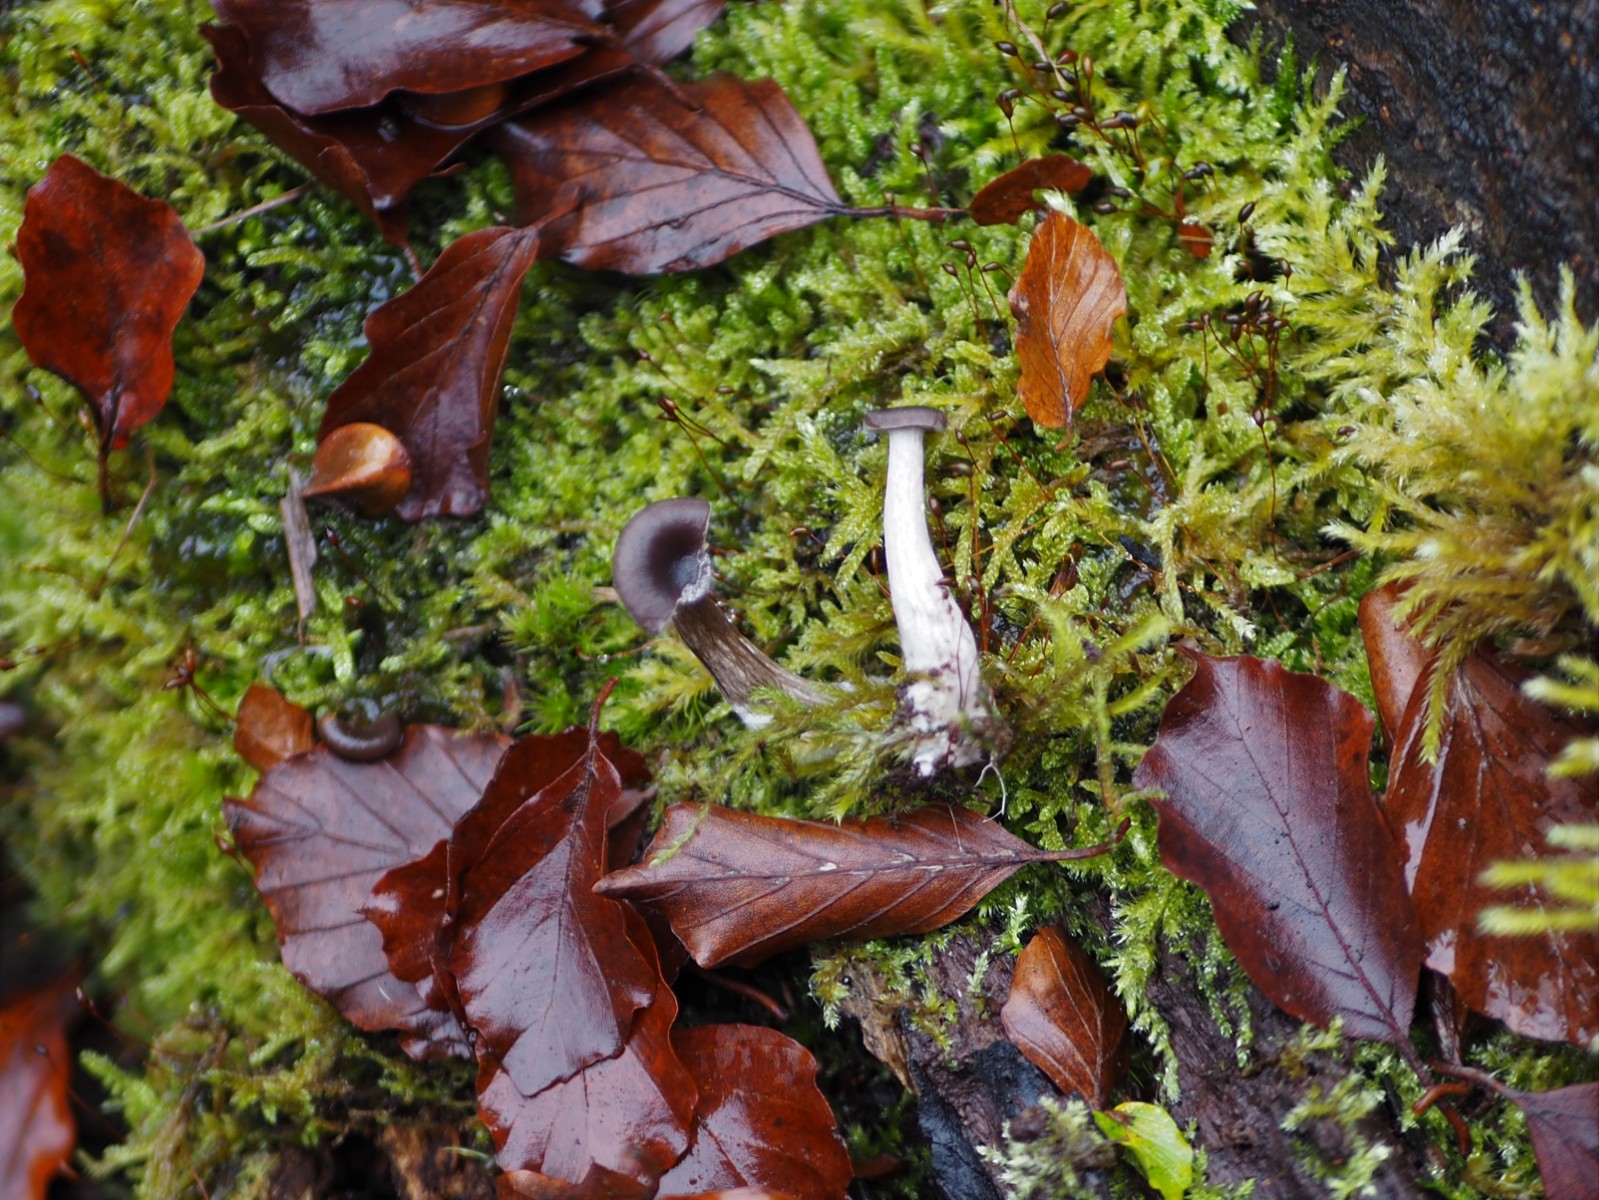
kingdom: Fungi
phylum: Basidiomycota
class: Agaricomycetes
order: Agaricales
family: Pseudoclitocybaceae
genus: Pseudoclitocybe
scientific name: Pseudoclitocybe cyathiformis
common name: almindelig bægertragthat
